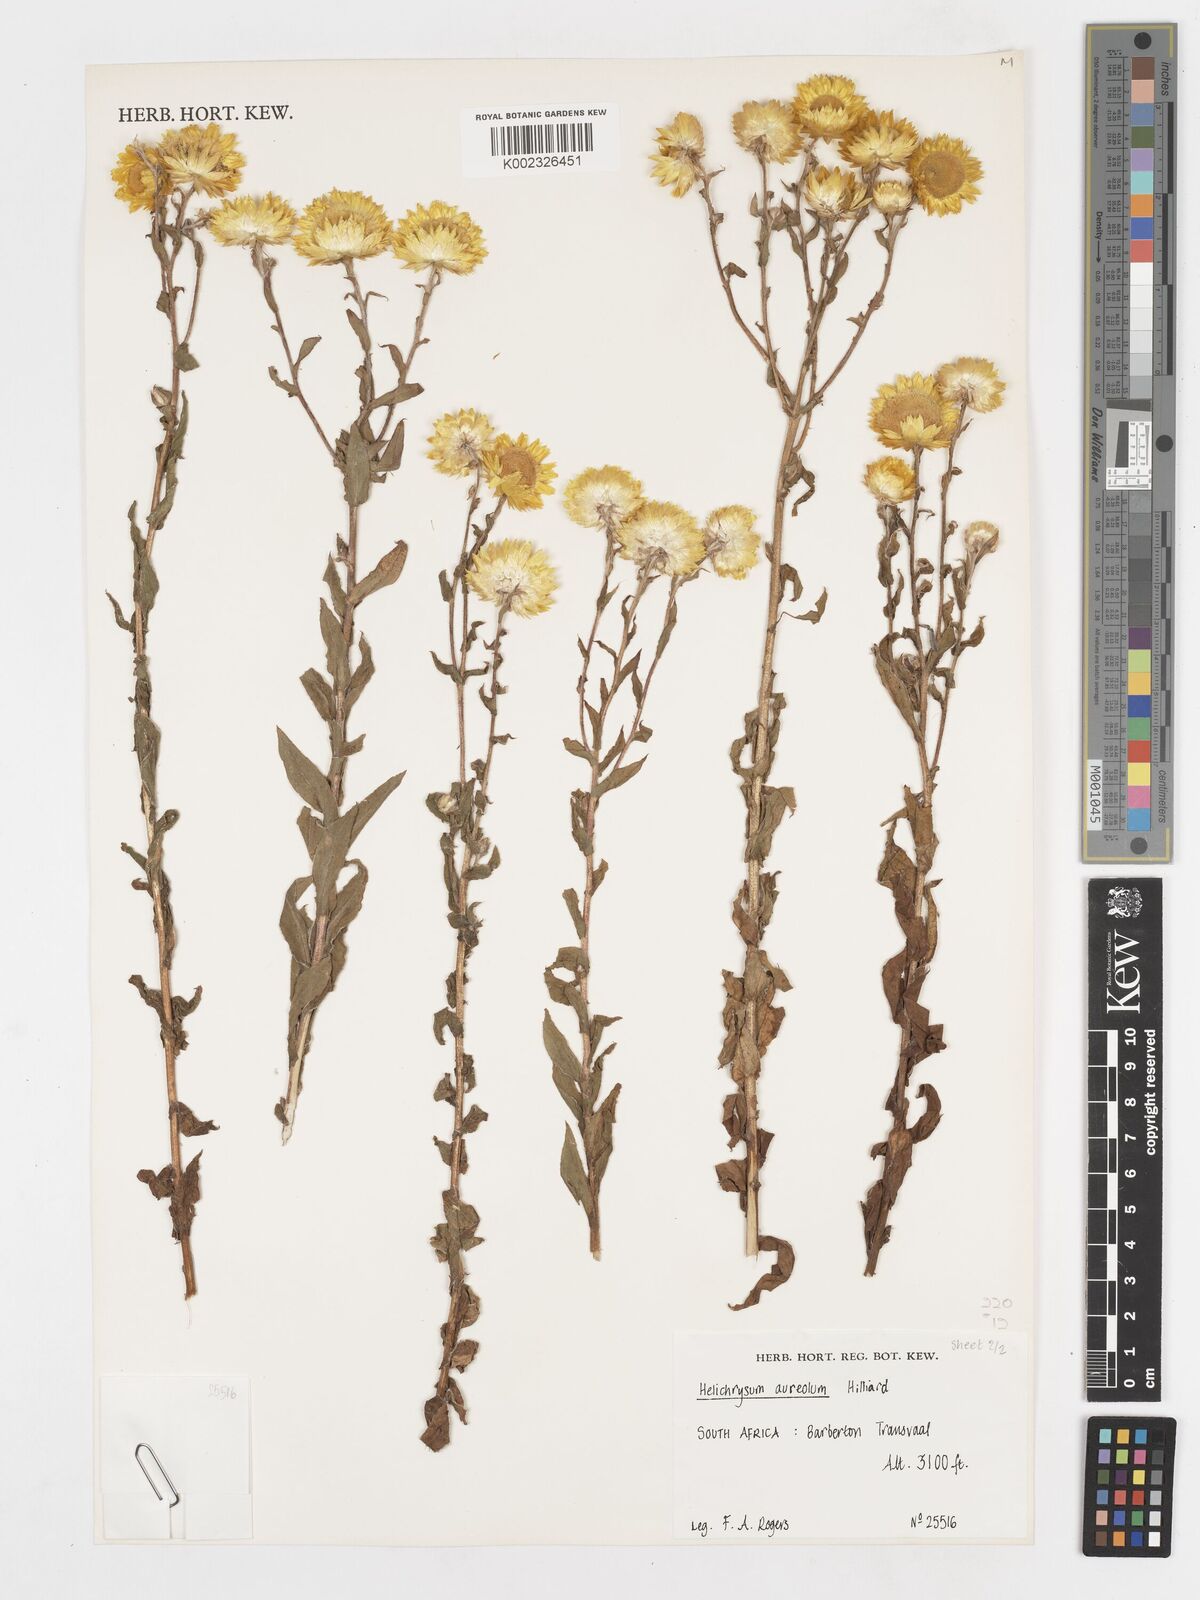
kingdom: Plantae
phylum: Tracheophyta
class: Magnoliopsida
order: Asterales
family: Asteraceae
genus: Helichrysum
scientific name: Helichrysum aureolum
